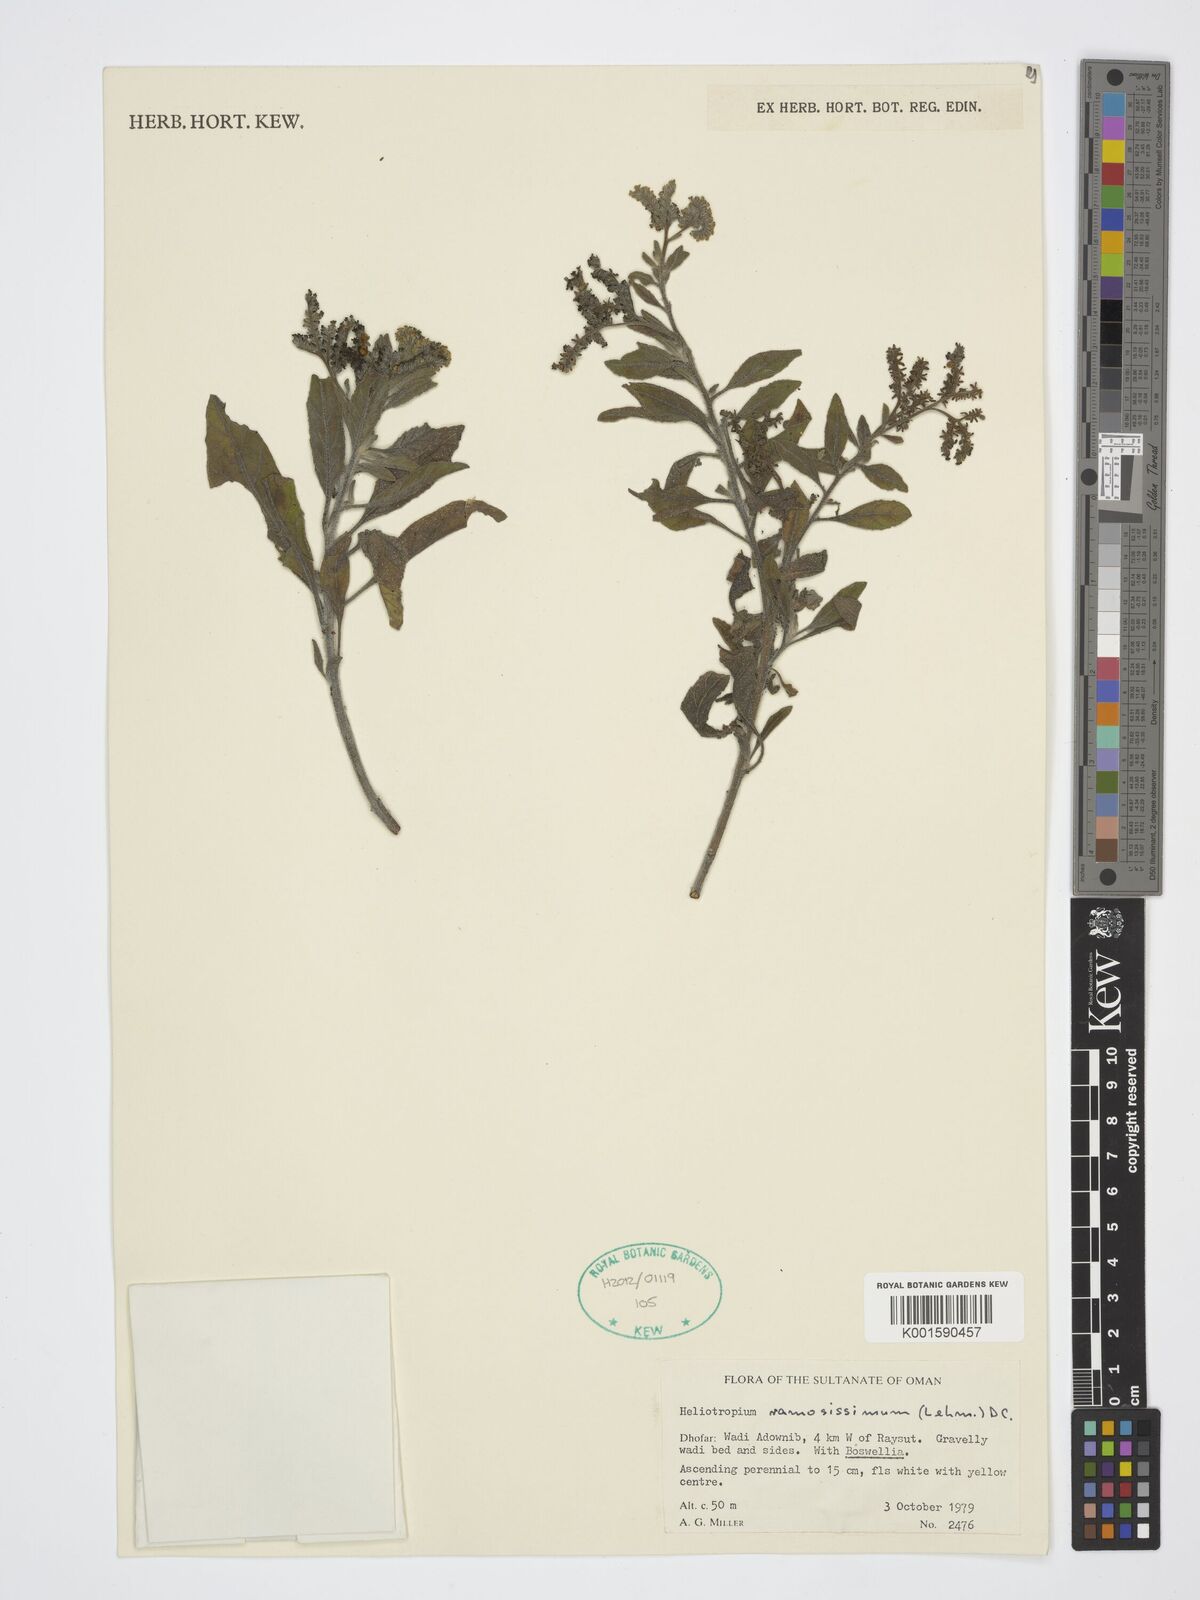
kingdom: Plantae
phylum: Tracheophyta
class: Magnoliopsida
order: Boraginales
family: Heliotropiaceae
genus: Heliotropium
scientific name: Heliotropium ramosissimum
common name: Wavy heliotrope
